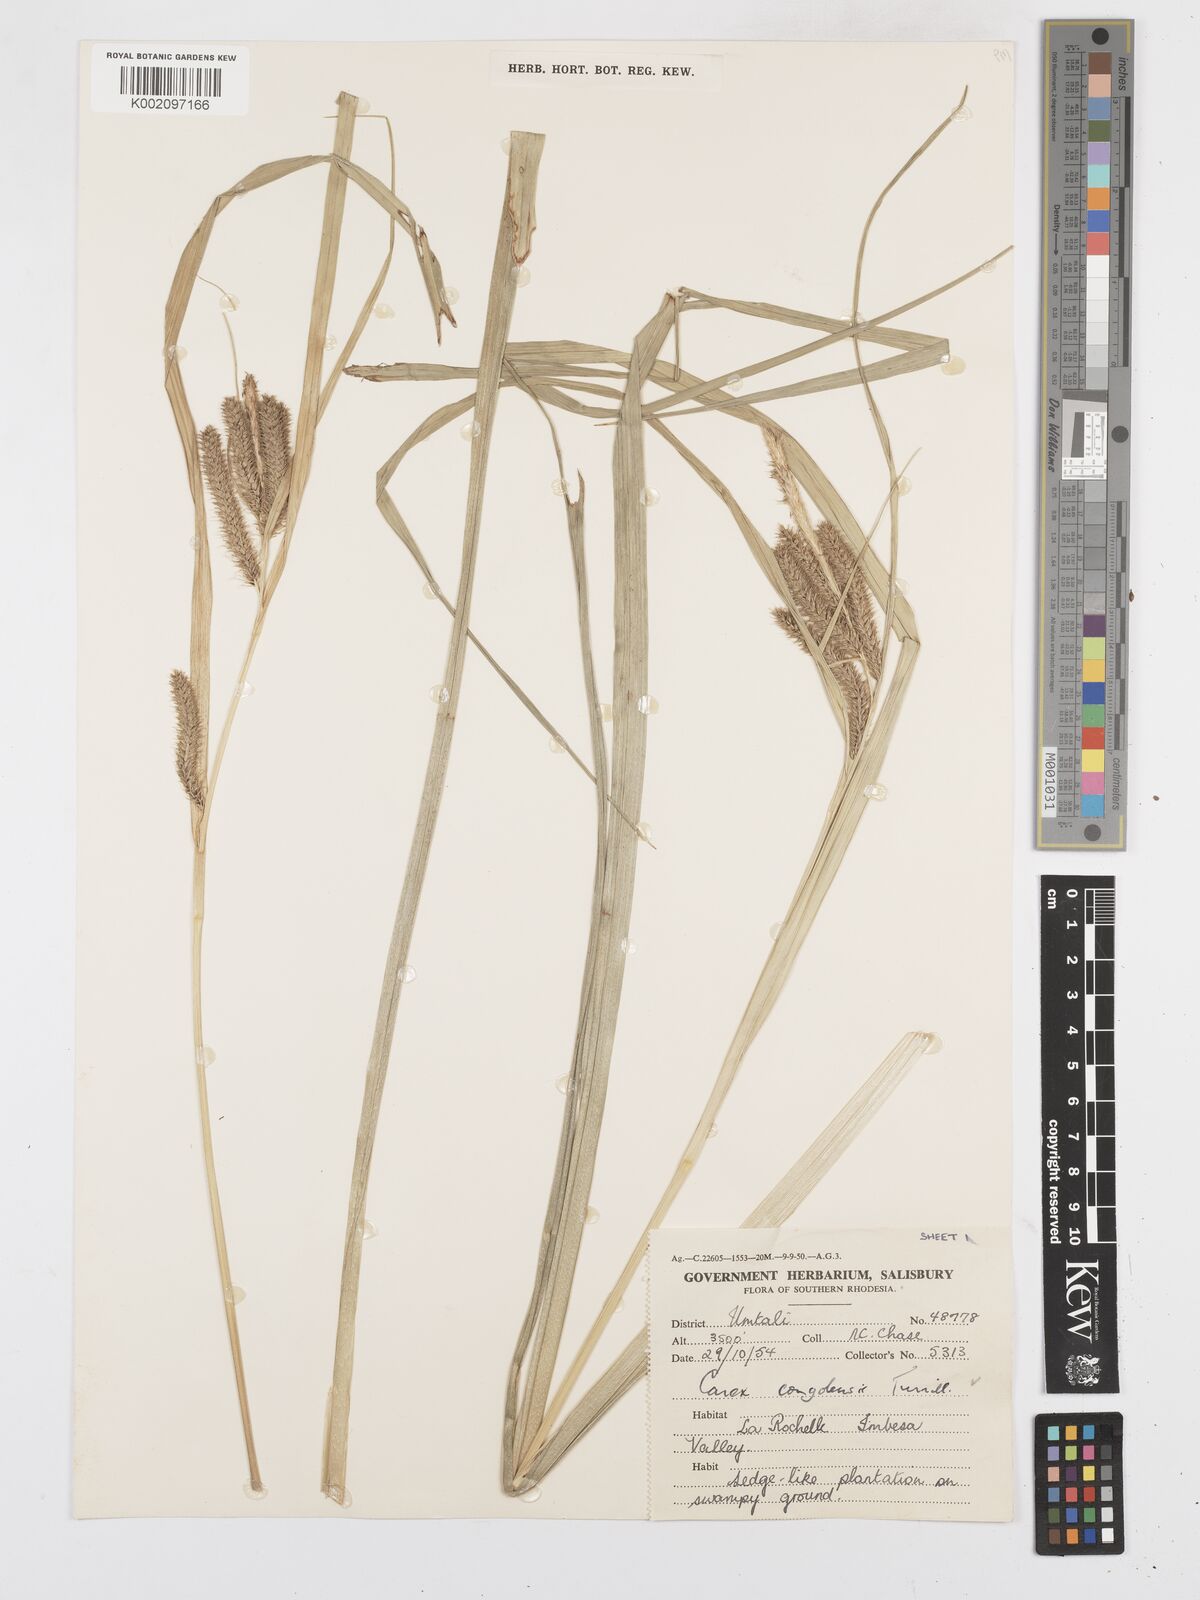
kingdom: Plantae
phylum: Tracheophyta
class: Liliopsida
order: Poales
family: Cyperaceae
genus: Carex
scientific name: Carex congolensis
